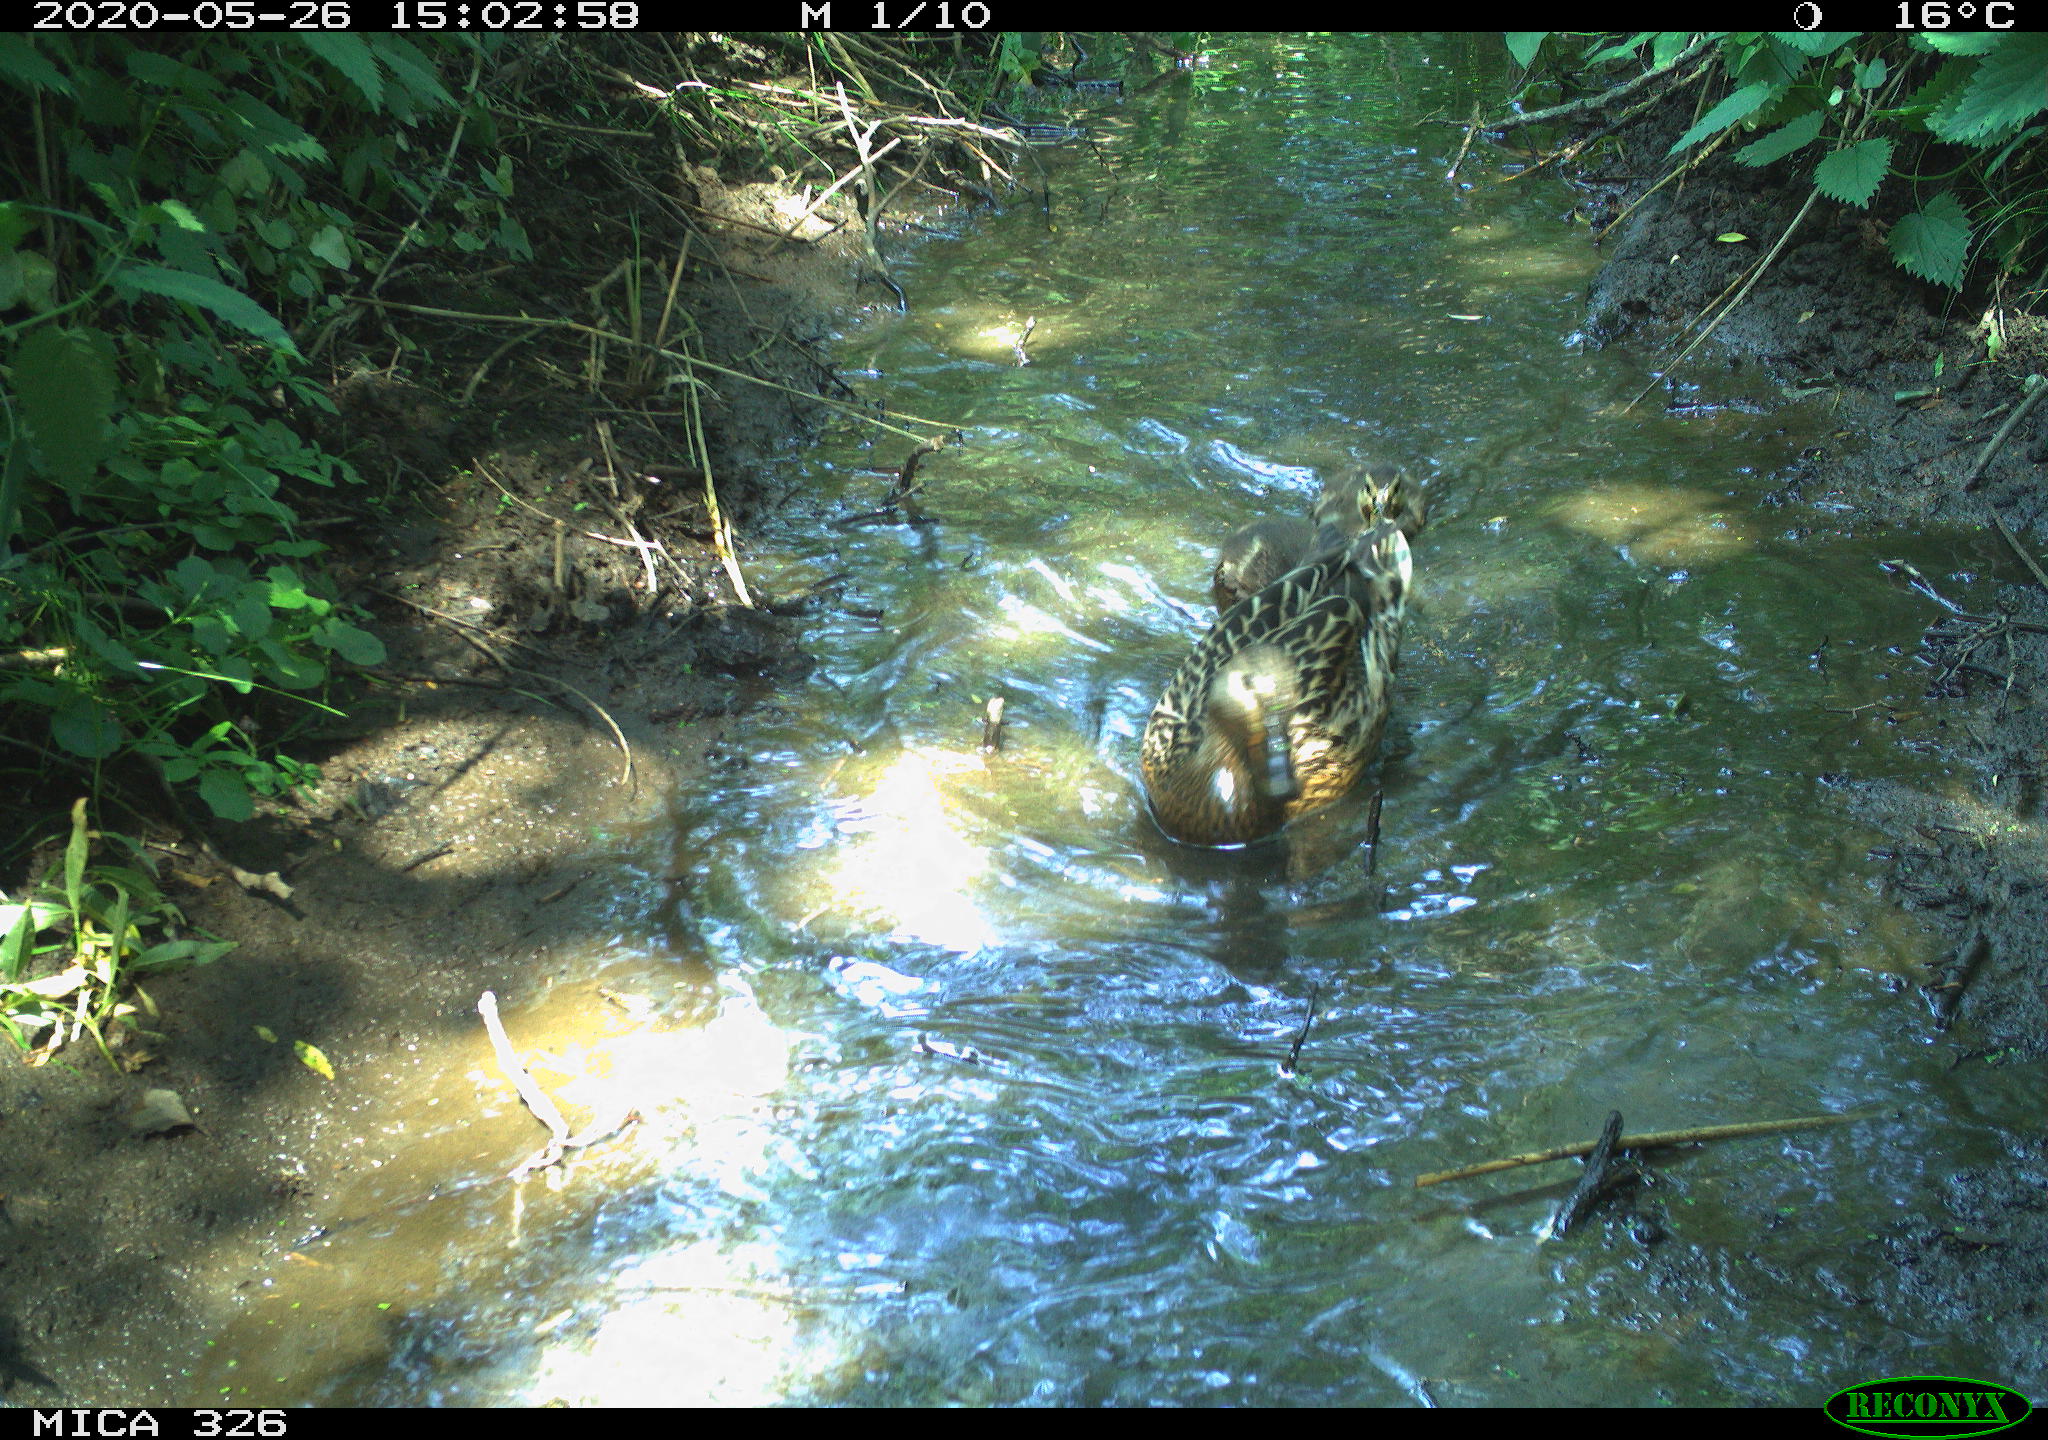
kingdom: Animalia
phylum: Chordata
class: Aves
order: Anseriformes
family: Anatidae
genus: Anas
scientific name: Anas platyrhynchos
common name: Mallard
